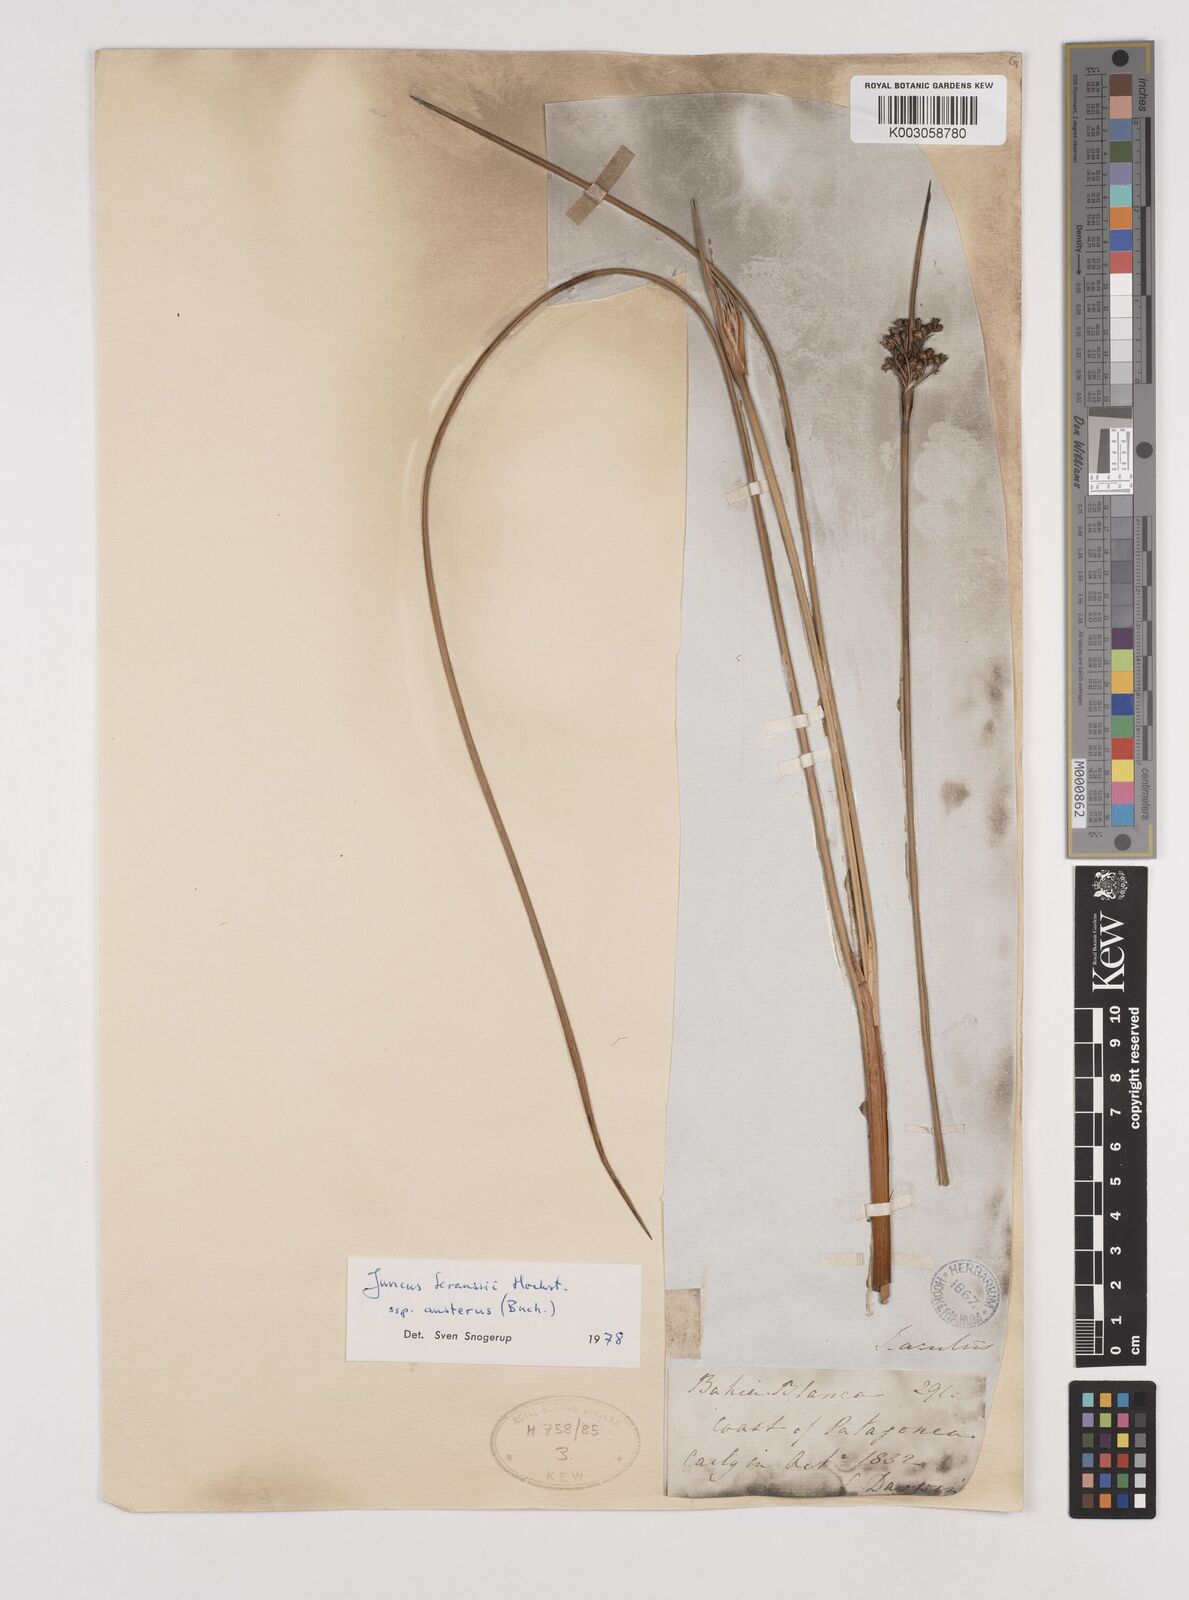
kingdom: Plantae
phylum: Tracheophyta
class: Liliopsida
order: Poales
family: Juncaceae
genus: Juncus
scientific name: Juncus kraussii
